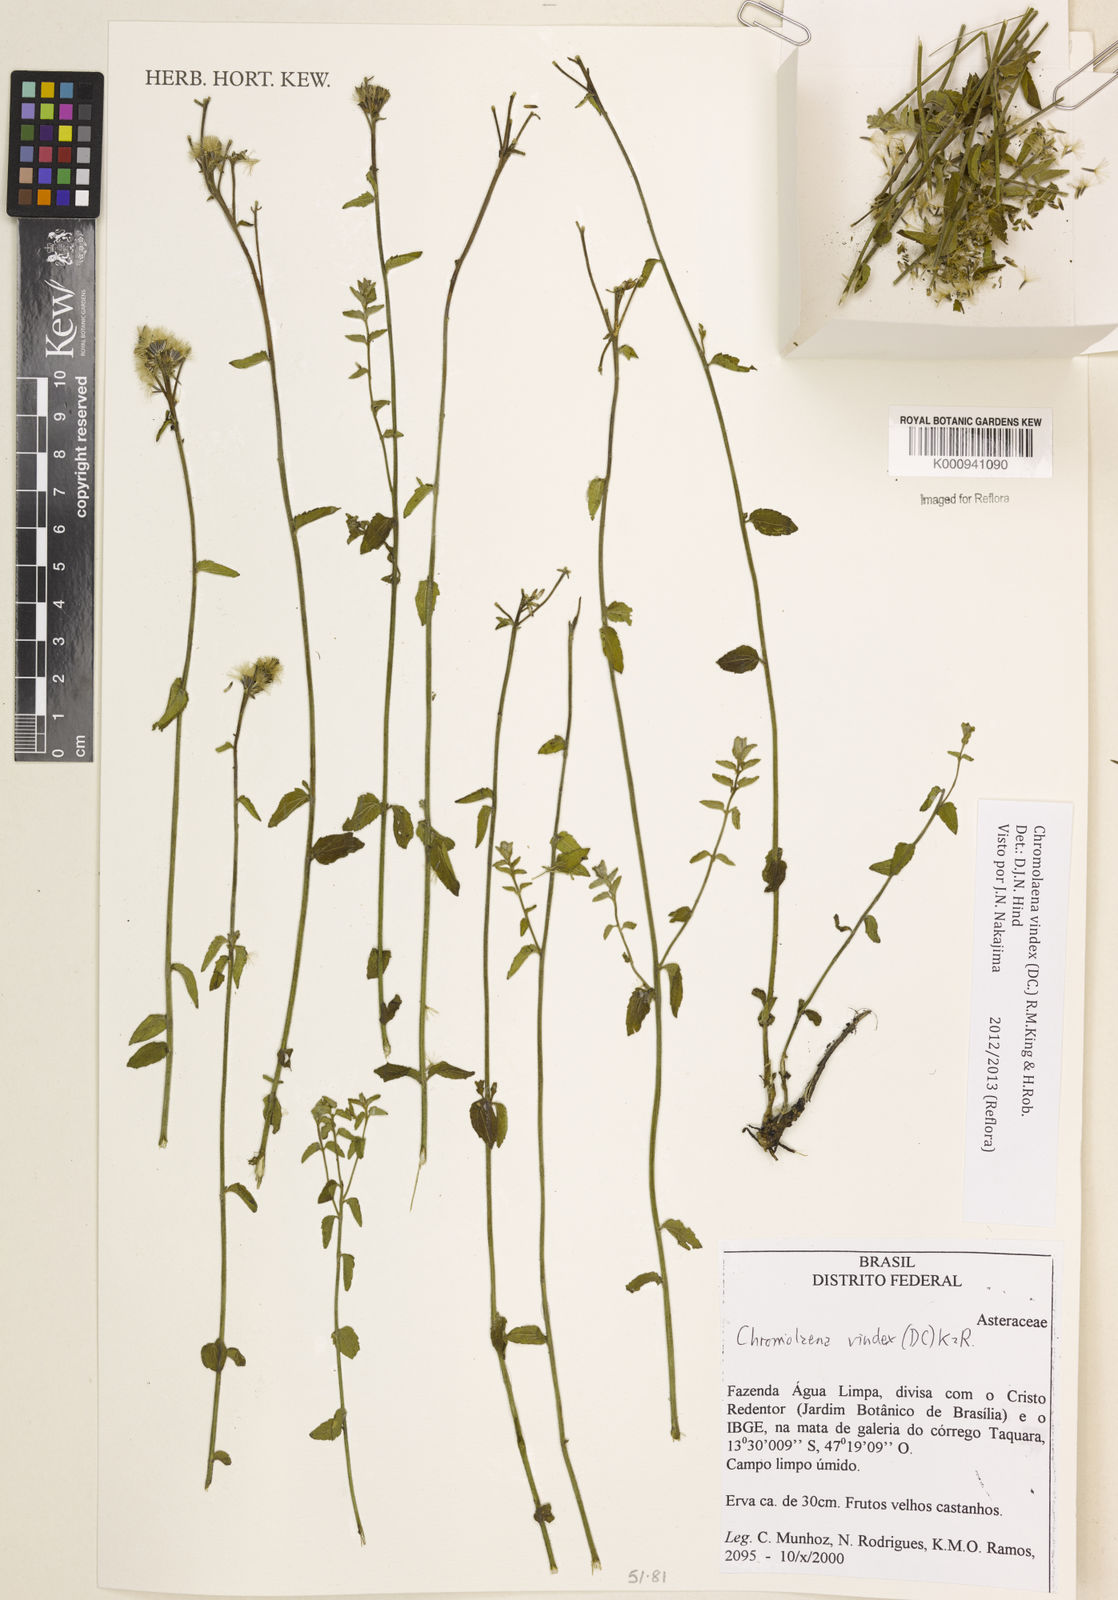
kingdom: Plantae
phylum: Tracheophyta
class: Magnoliopsida
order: Asterales
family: Asteraceae
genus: Chromolaena
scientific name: Chromolaena vindex
